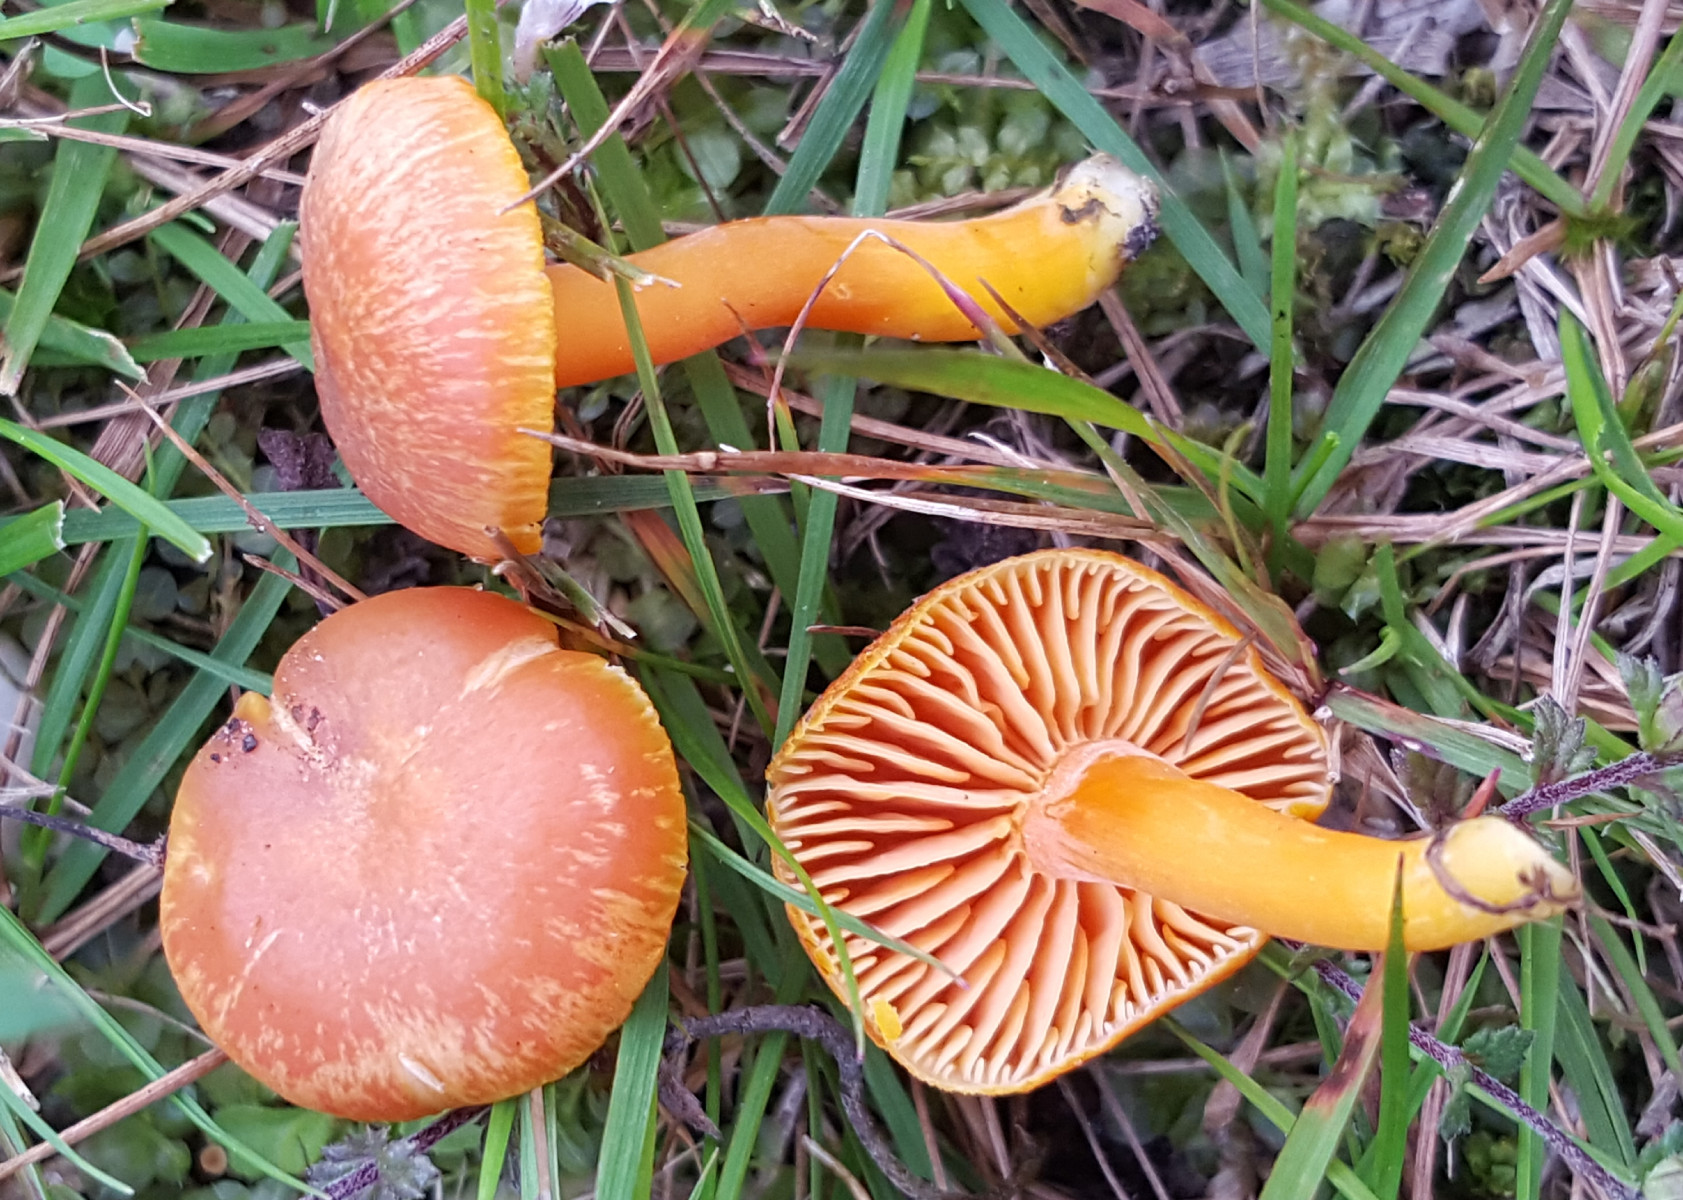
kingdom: Fungi
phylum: Basidiomycota
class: Agaricomycetes
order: Agaricales
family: Hygrophoraceae
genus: Hygrocybe
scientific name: Hygrocybe miniata
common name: mønje-vokshat
